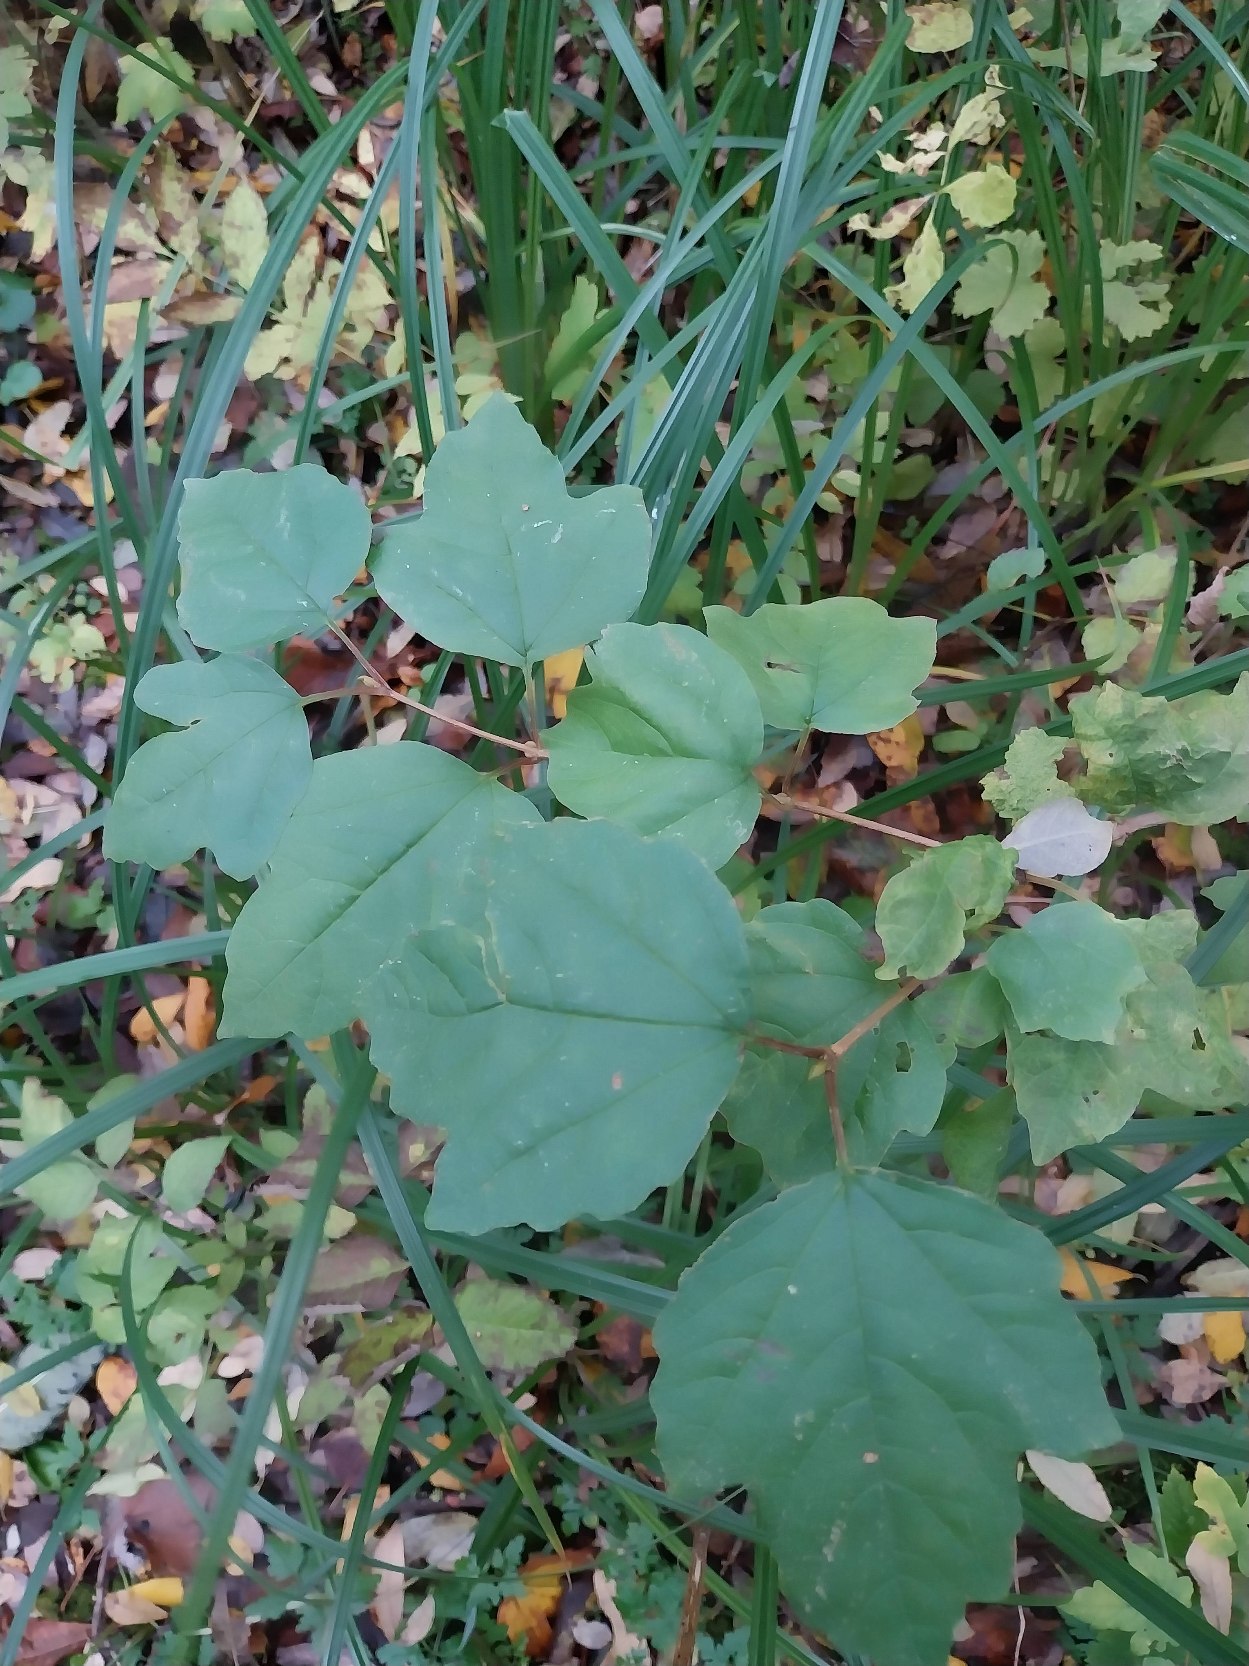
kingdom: Plantae
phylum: Tracheophyta
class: Magnoliopsida
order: Dipsacales
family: Viburnaceae
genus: Viburnum
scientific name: Viburnum opulus
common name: Kvalkved
